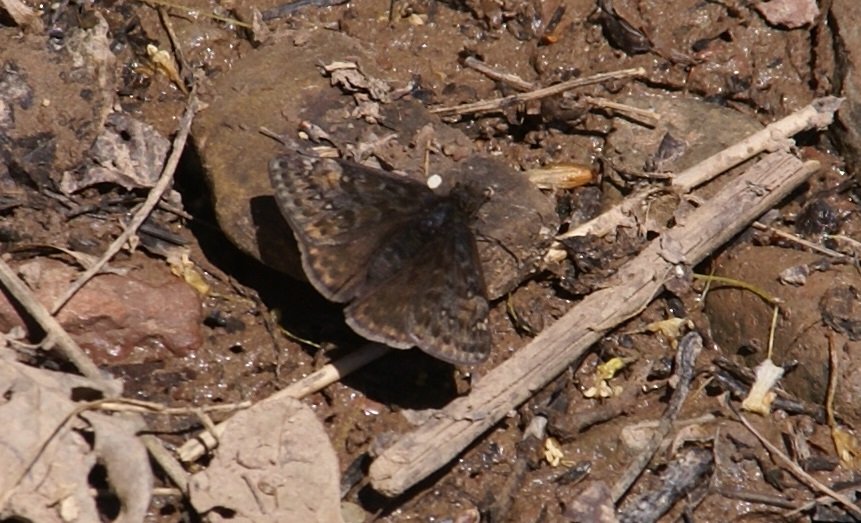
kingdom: Animalia
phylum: Arthropoda
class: Insecta
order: Lepidoptera
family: Hesperiidae
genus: Gesta
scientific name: Gesta
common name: Juvenal's Duskywing
